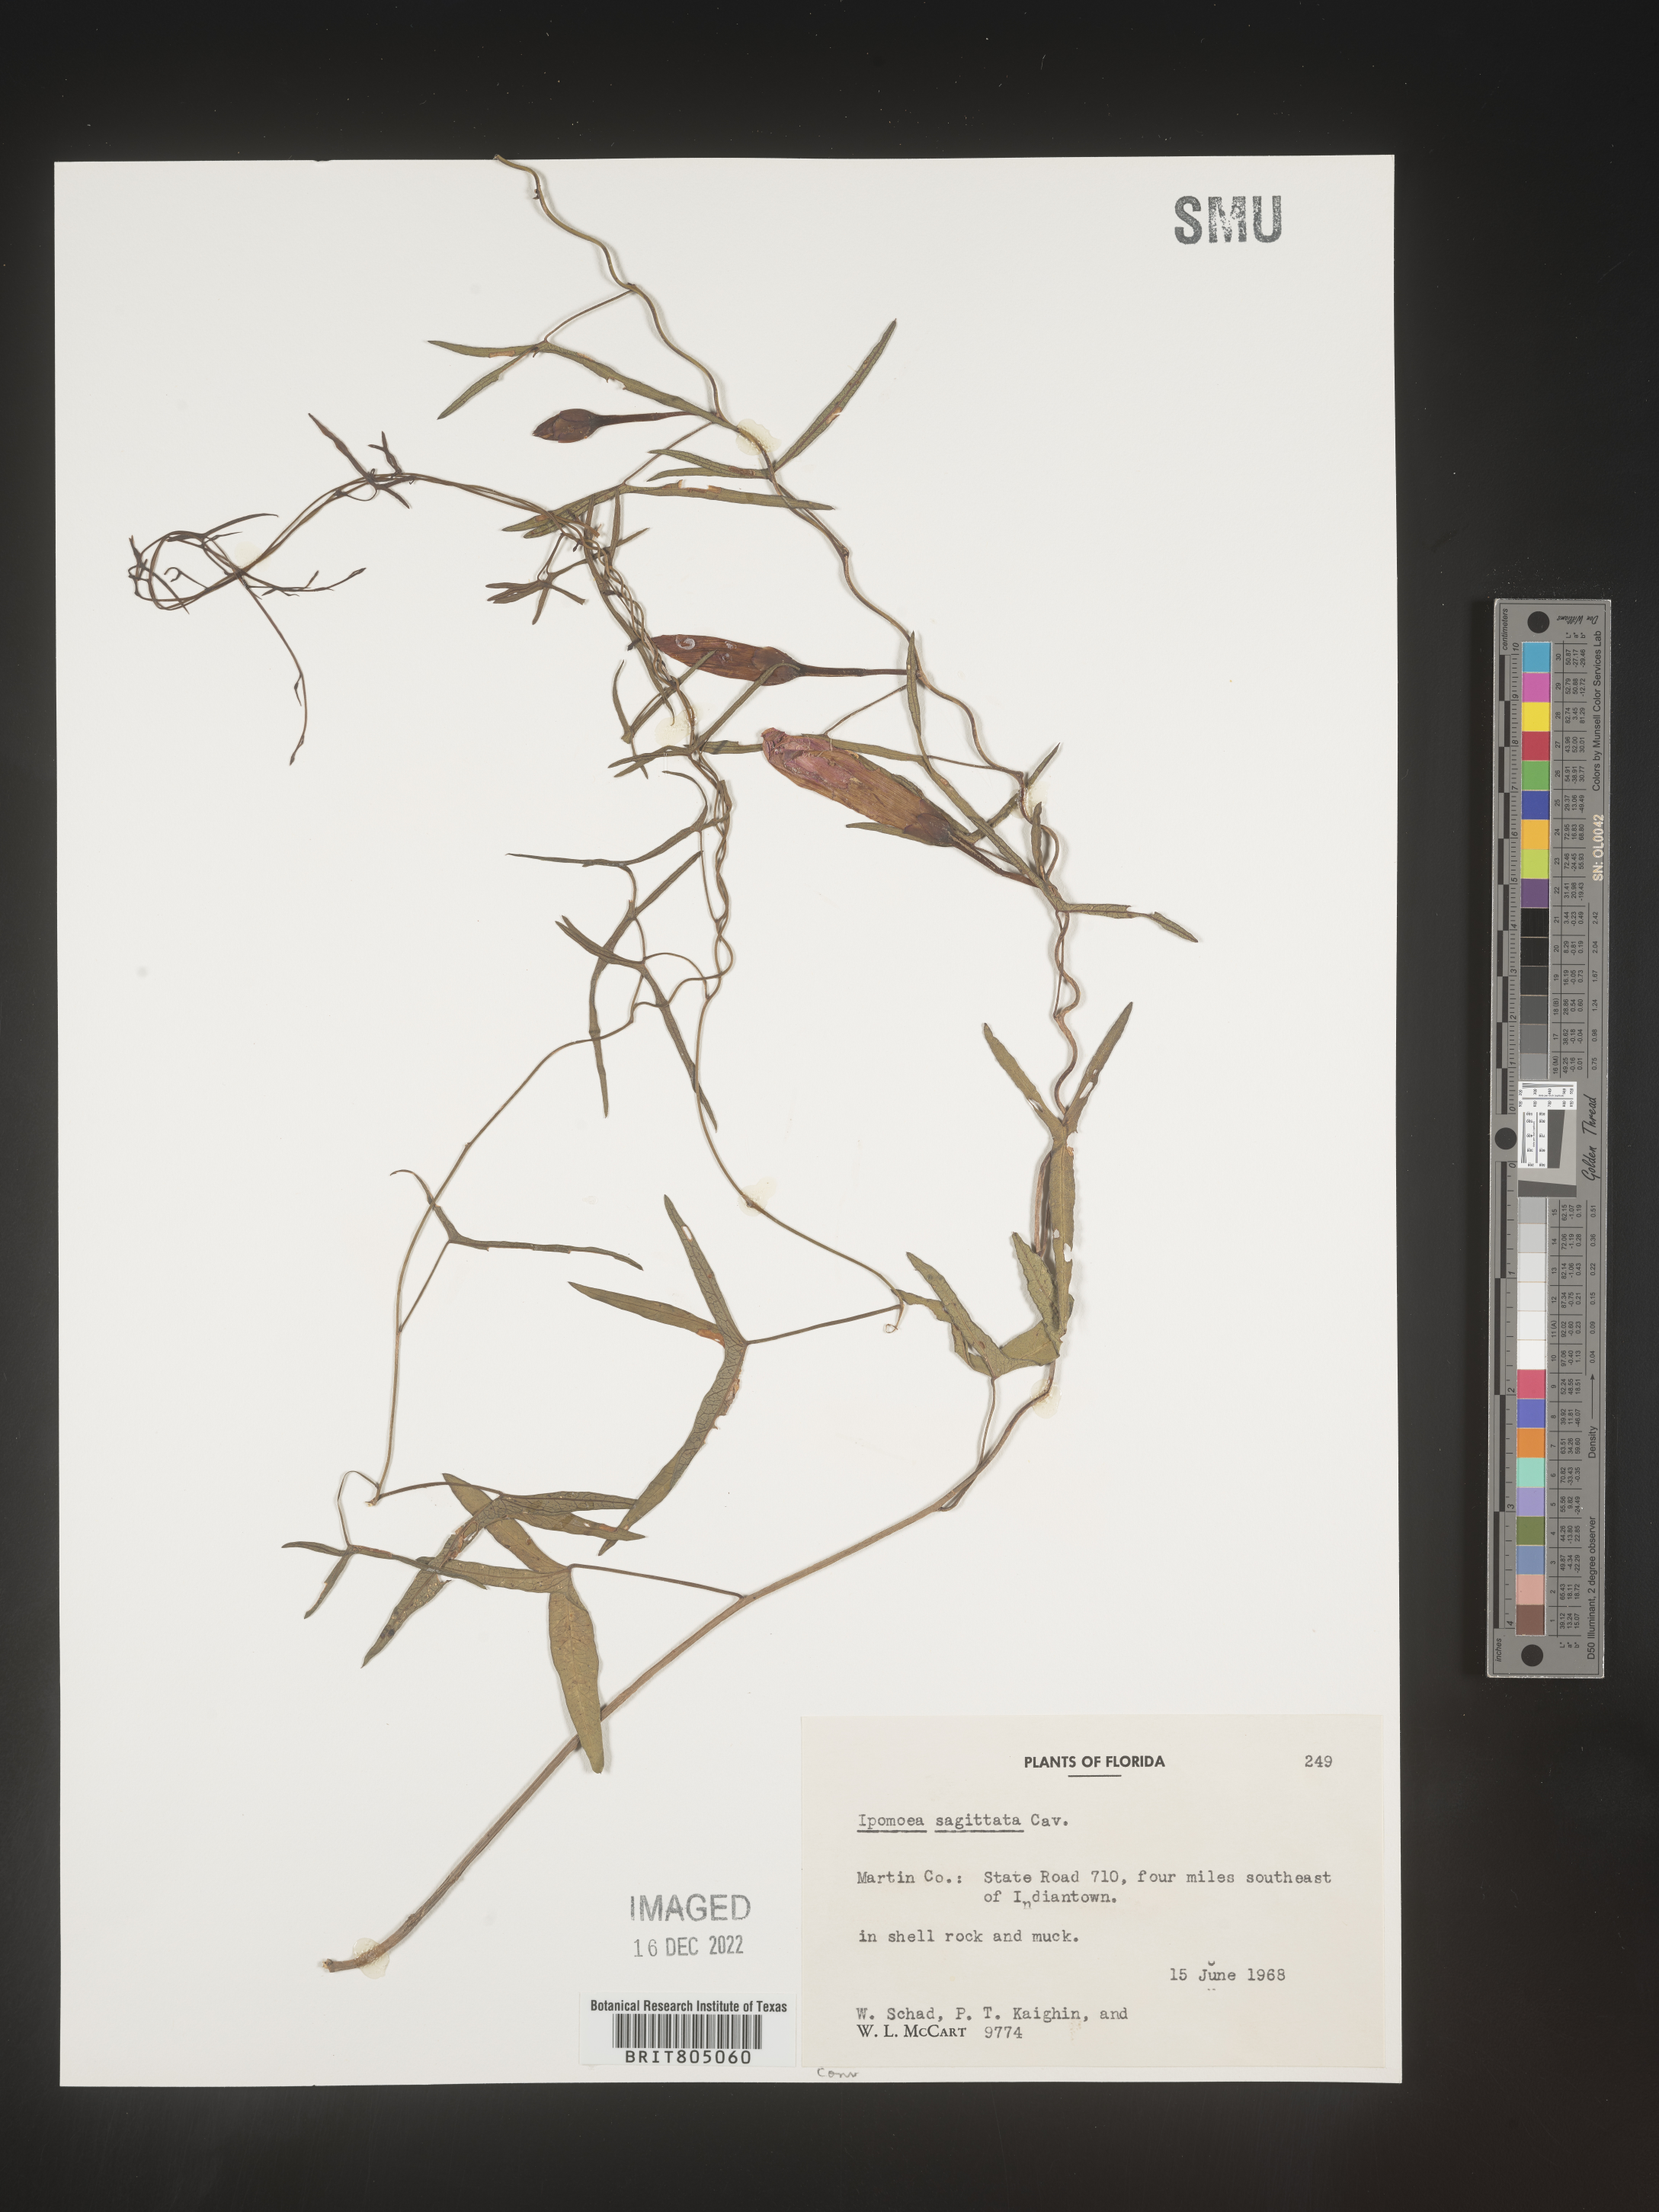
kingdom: Plantae
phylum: Tracheophyta
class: Magnoliopsida
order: Solanales
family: Convolvulaceae
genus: Ipomoea
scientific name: Ipomoea sinensis
